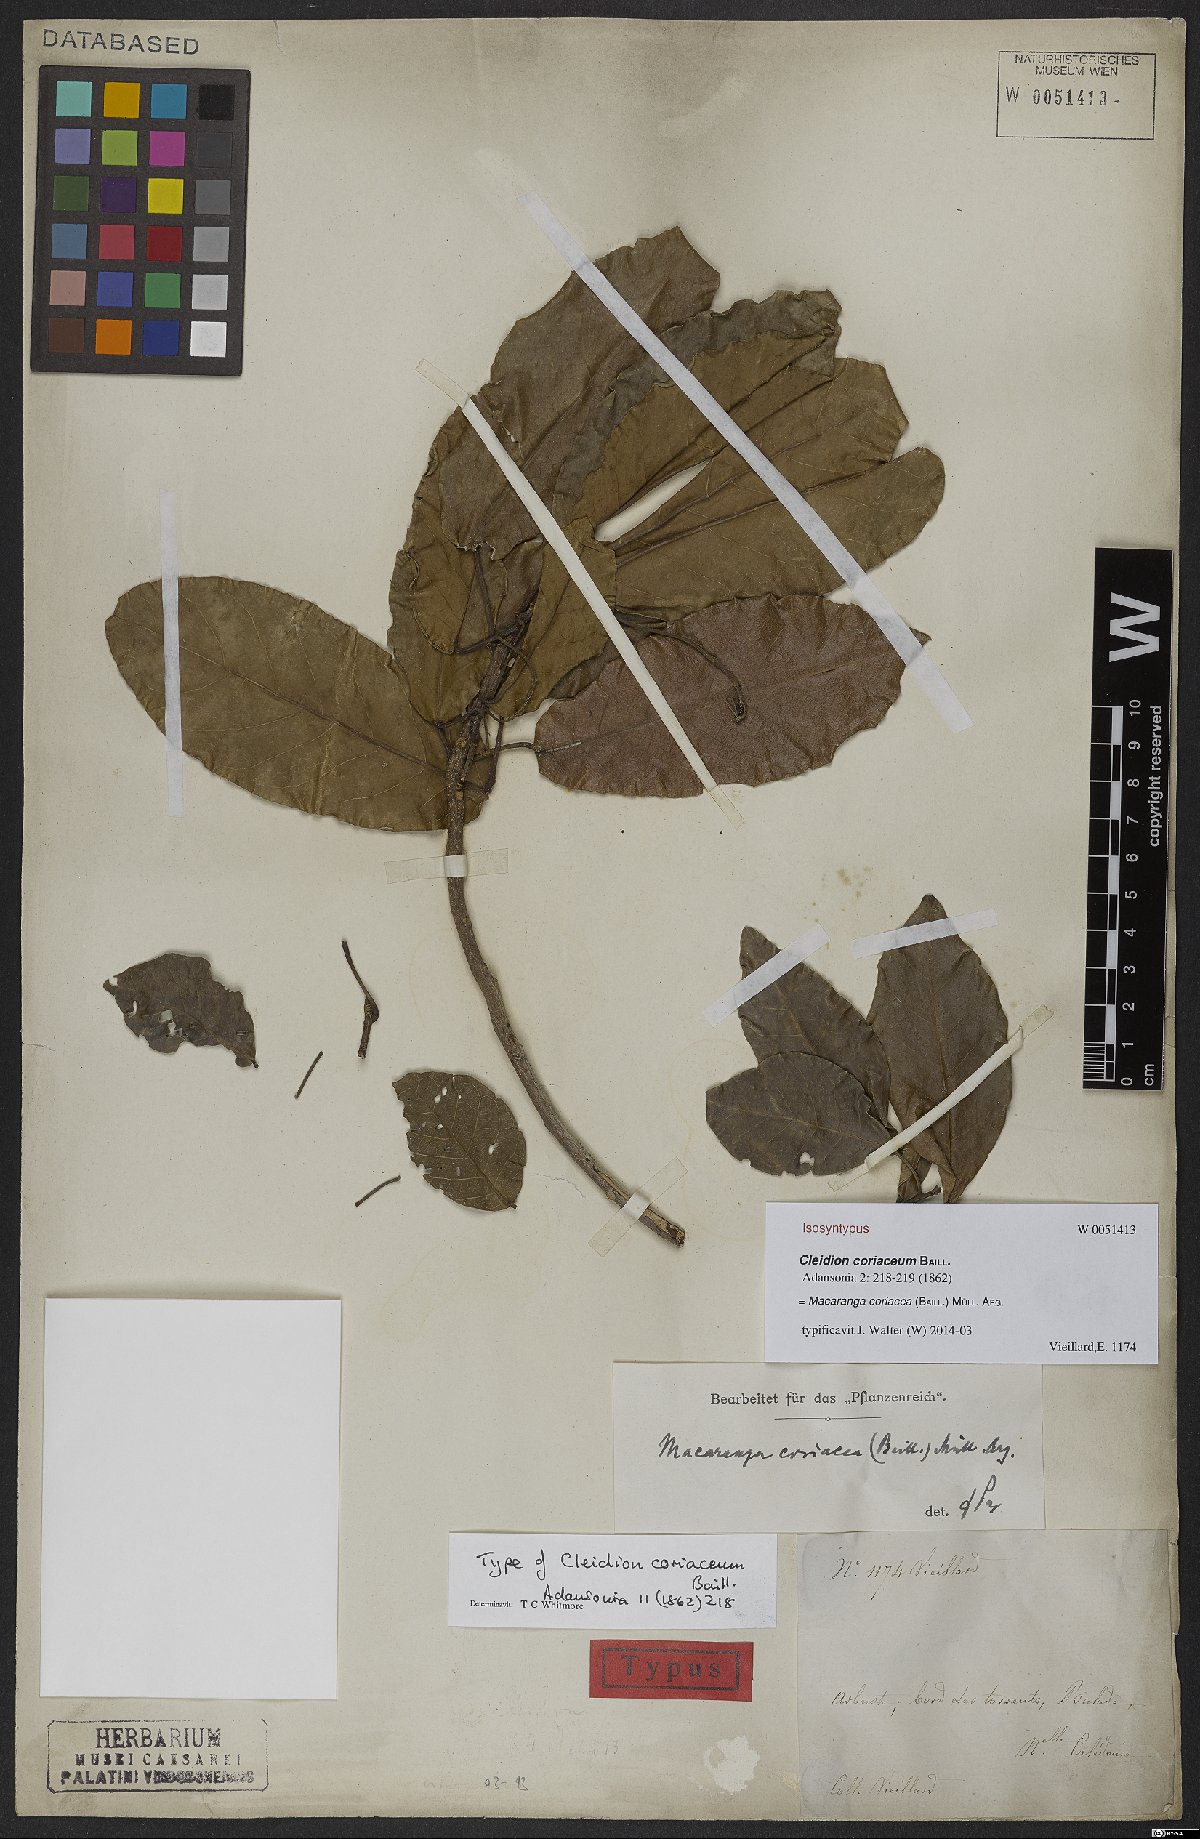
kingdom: Plantae
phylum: Tracheophyta
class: Magnoliopsida
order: Malpighiales
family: Euphorbiaceae
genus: Macaranga
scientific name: Macaranga coriacea
